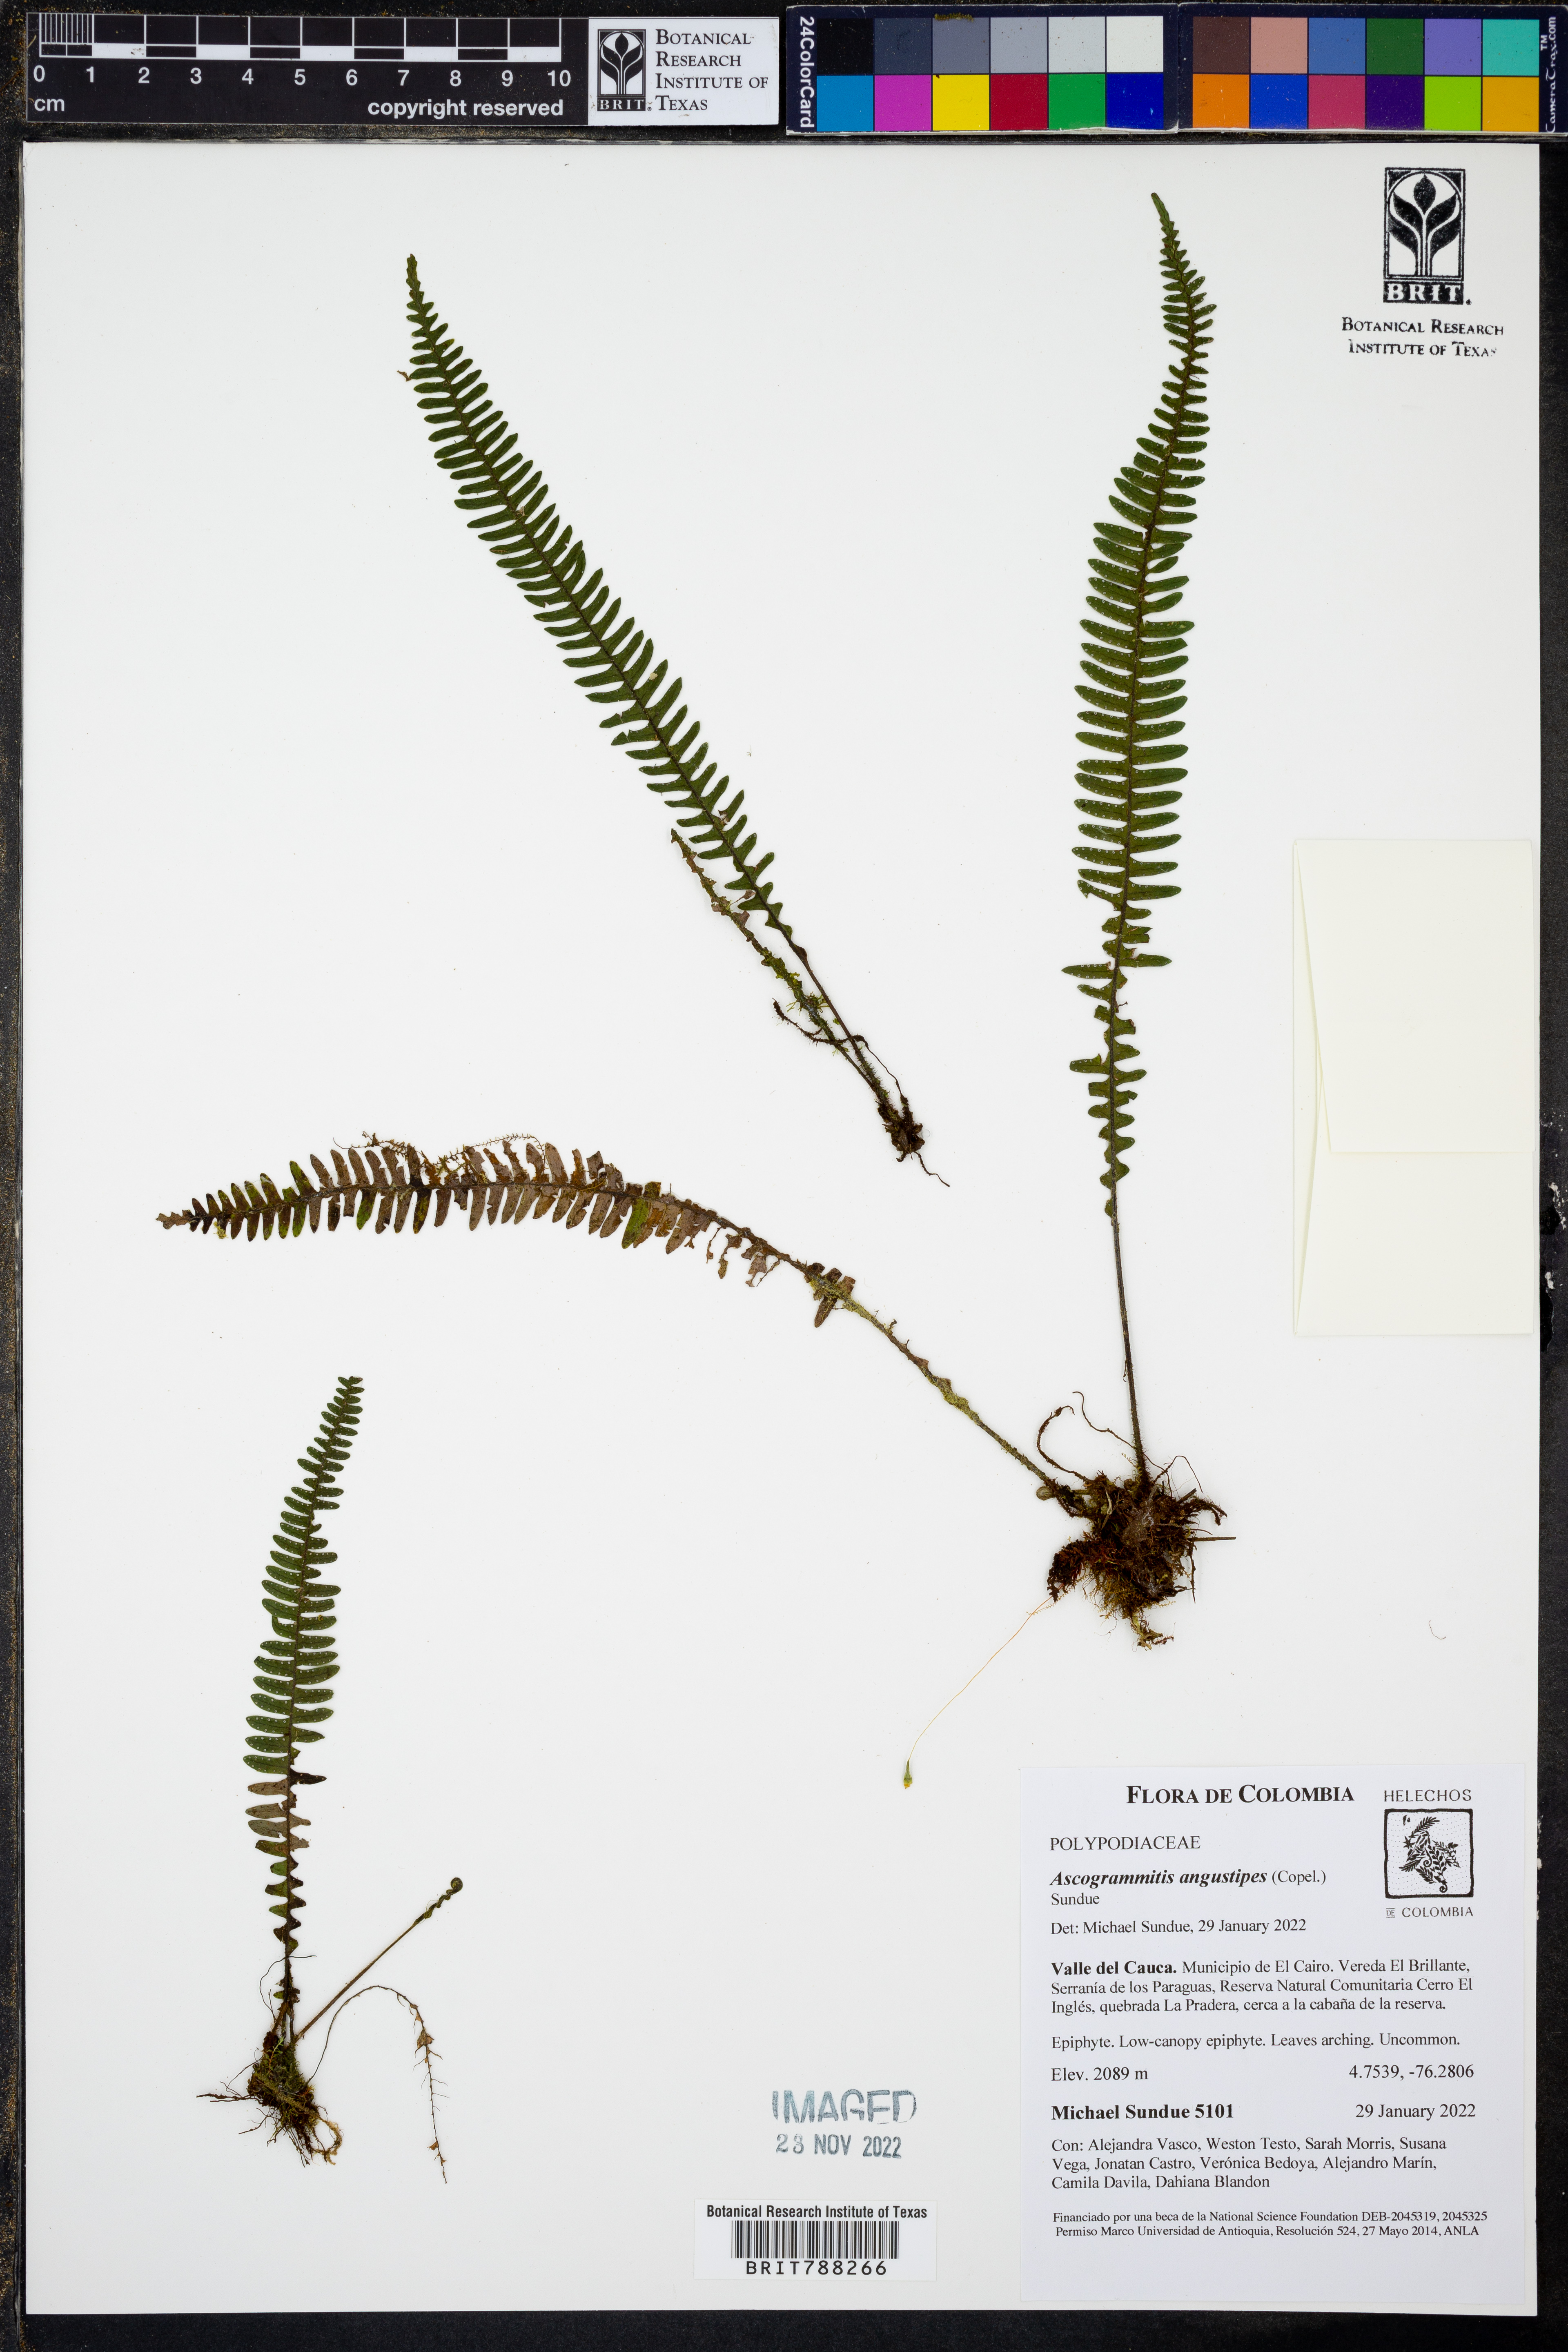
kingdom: Plantae
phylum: Tracheophyta
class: Polypodiopsida
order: Polypodiales
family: Polypodiaceae
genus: Ascogrammitis
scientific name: Ascogrammitis angustipes
